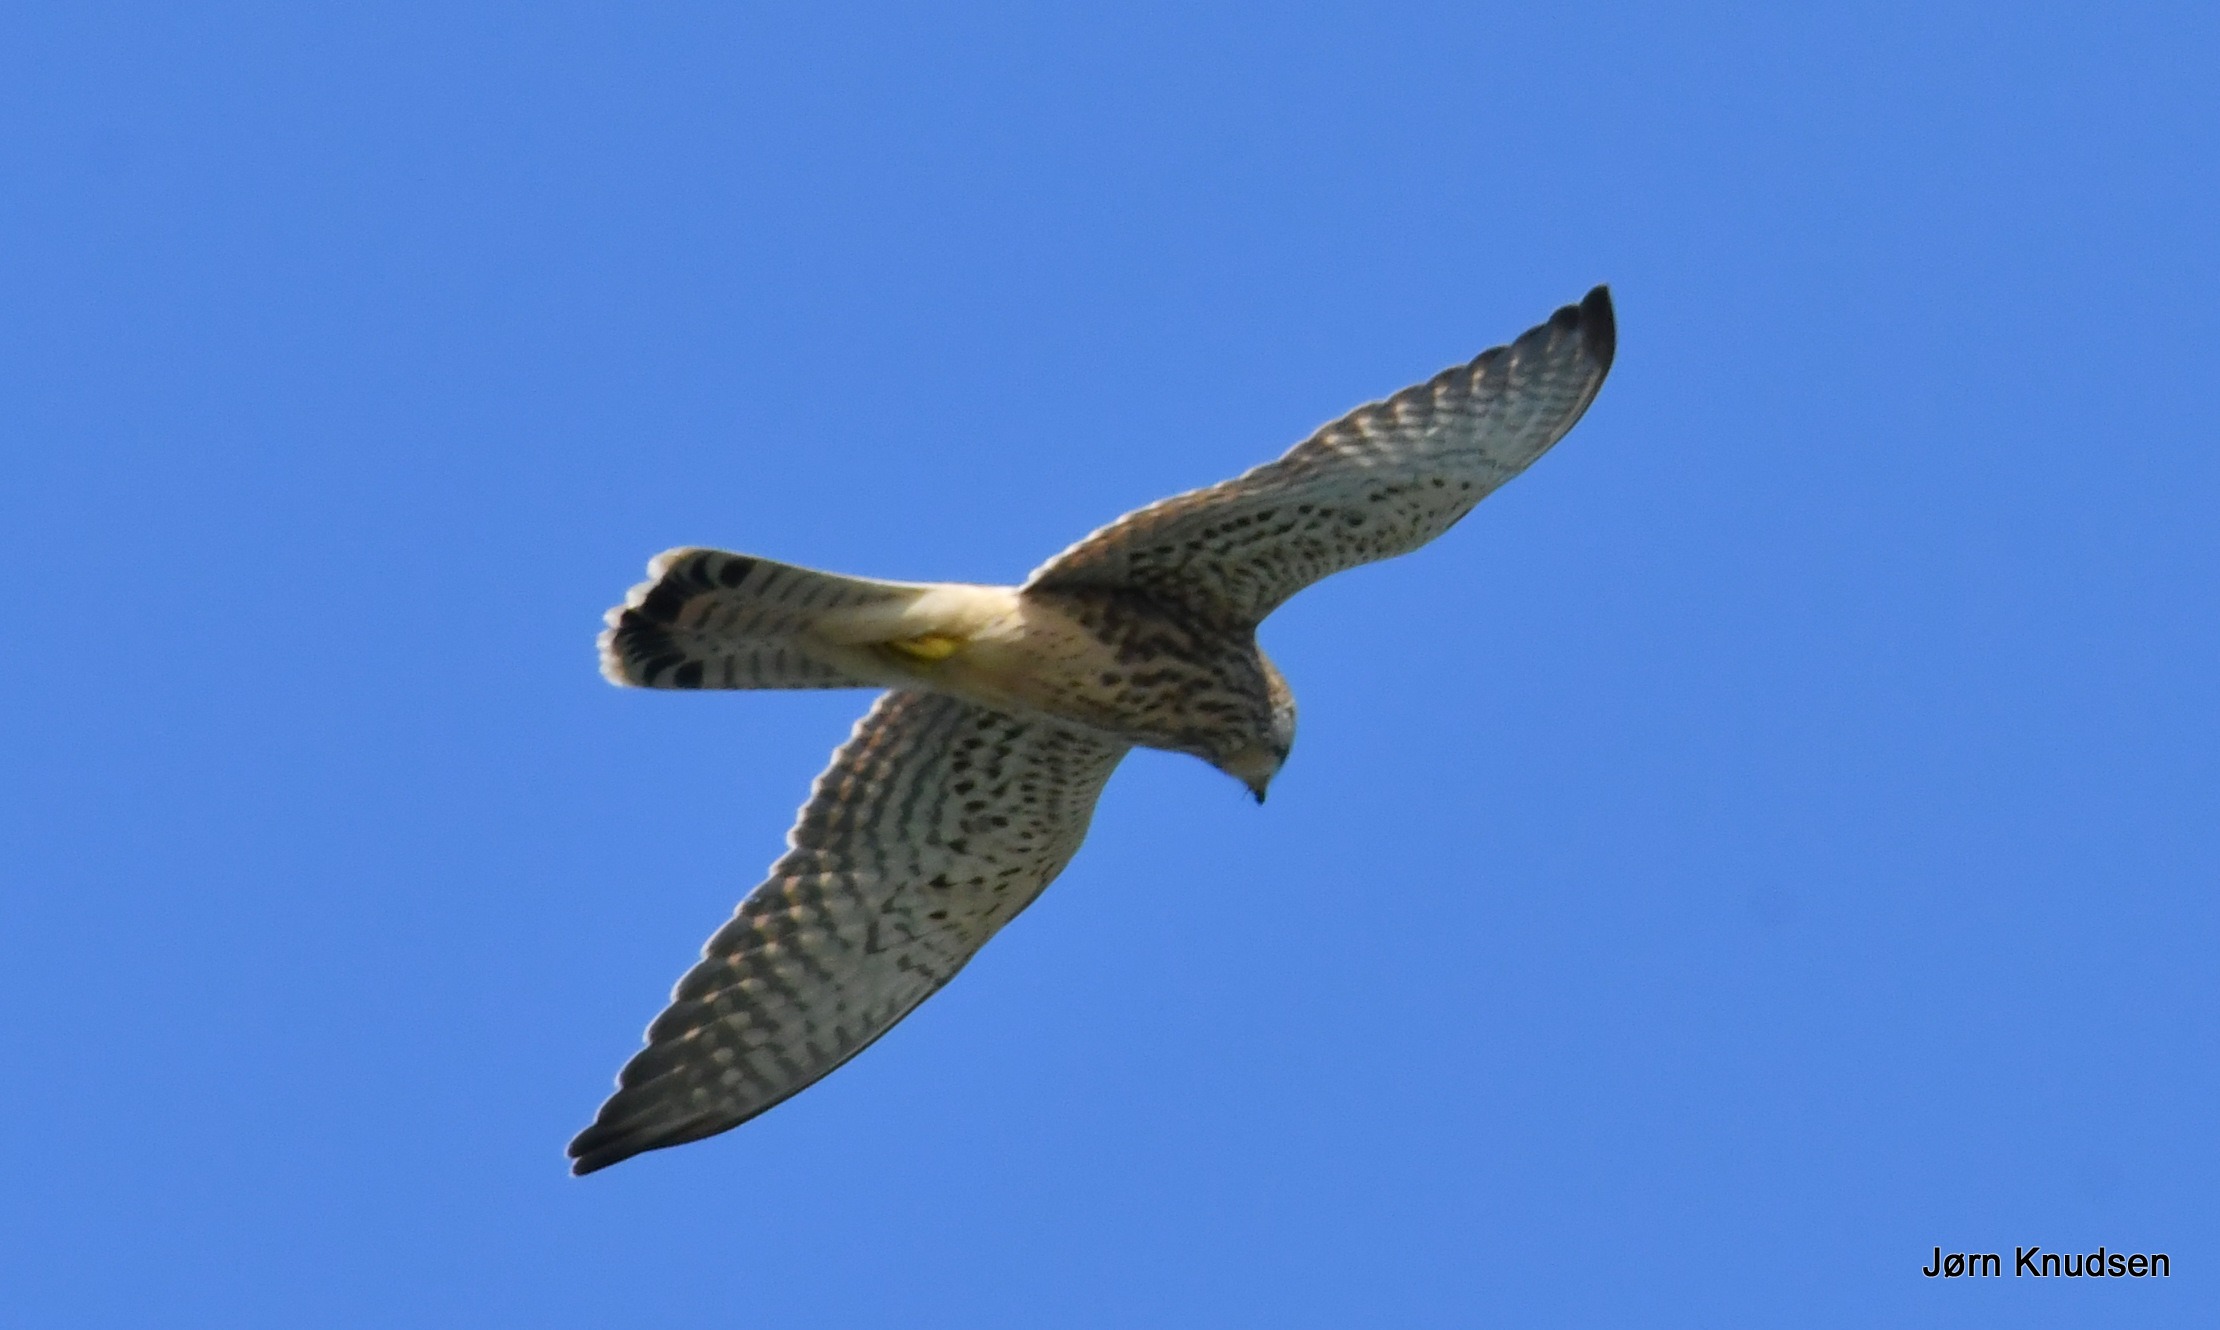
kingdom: Animalia
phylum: Chordata
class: Aves
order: Falconiformes
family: Falconidae
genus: Falco
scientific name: Falco tinnunculus
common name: Tårnfalk
